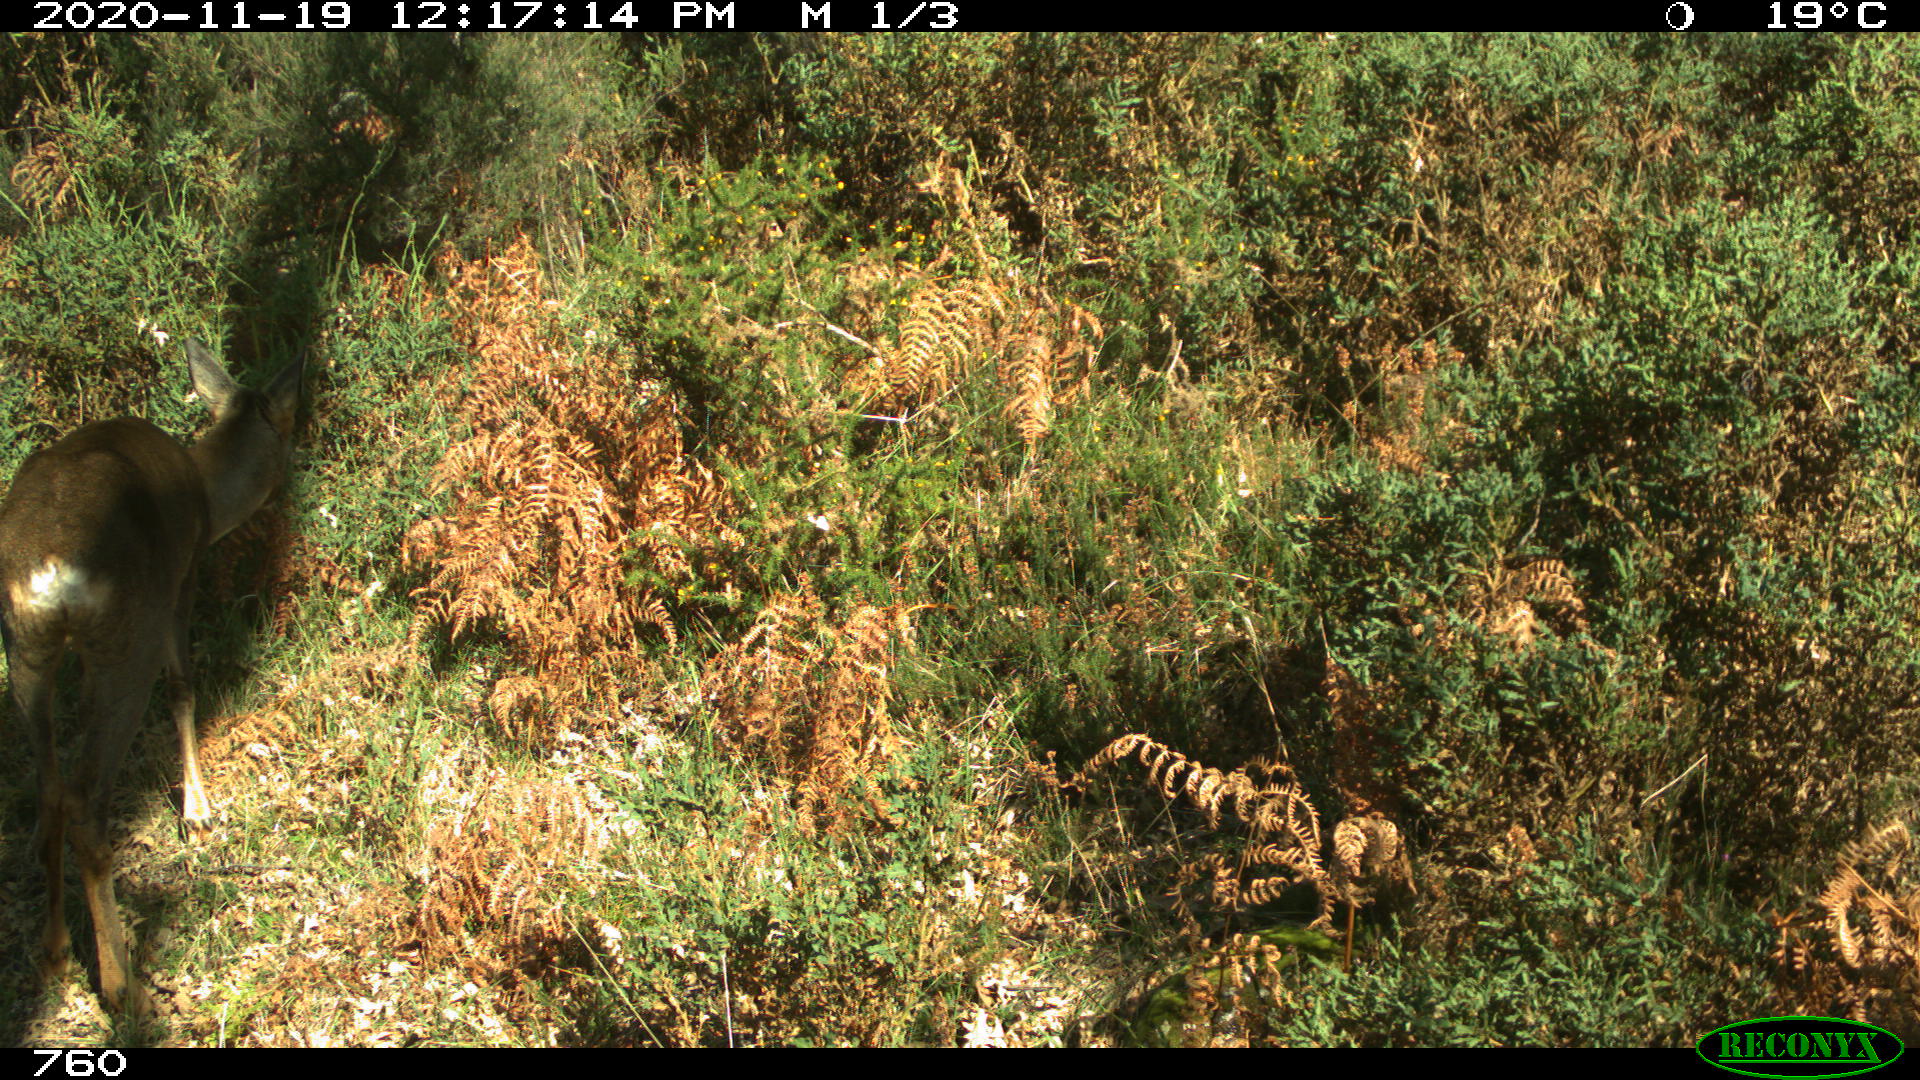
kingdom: Animalia
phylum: Chordata
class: Mammalia
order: Artiodactyla
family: Cervidae
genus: Capreolus
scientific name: Capreolus capreolus
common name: Western roe deer
